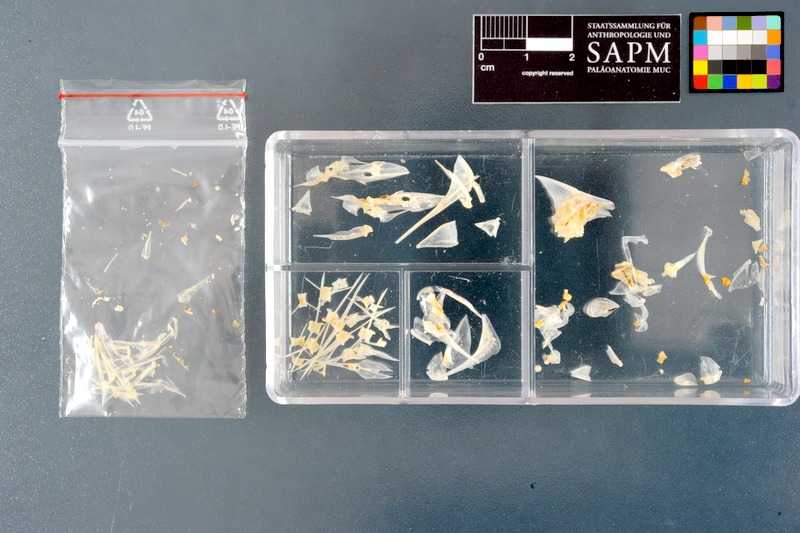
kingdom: Animalia
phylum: Chordata
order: Perciformes
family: Leiognathidae
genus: Photopectoralis
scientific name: Photopectoralis bindus
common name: Orangefin ponyfish
